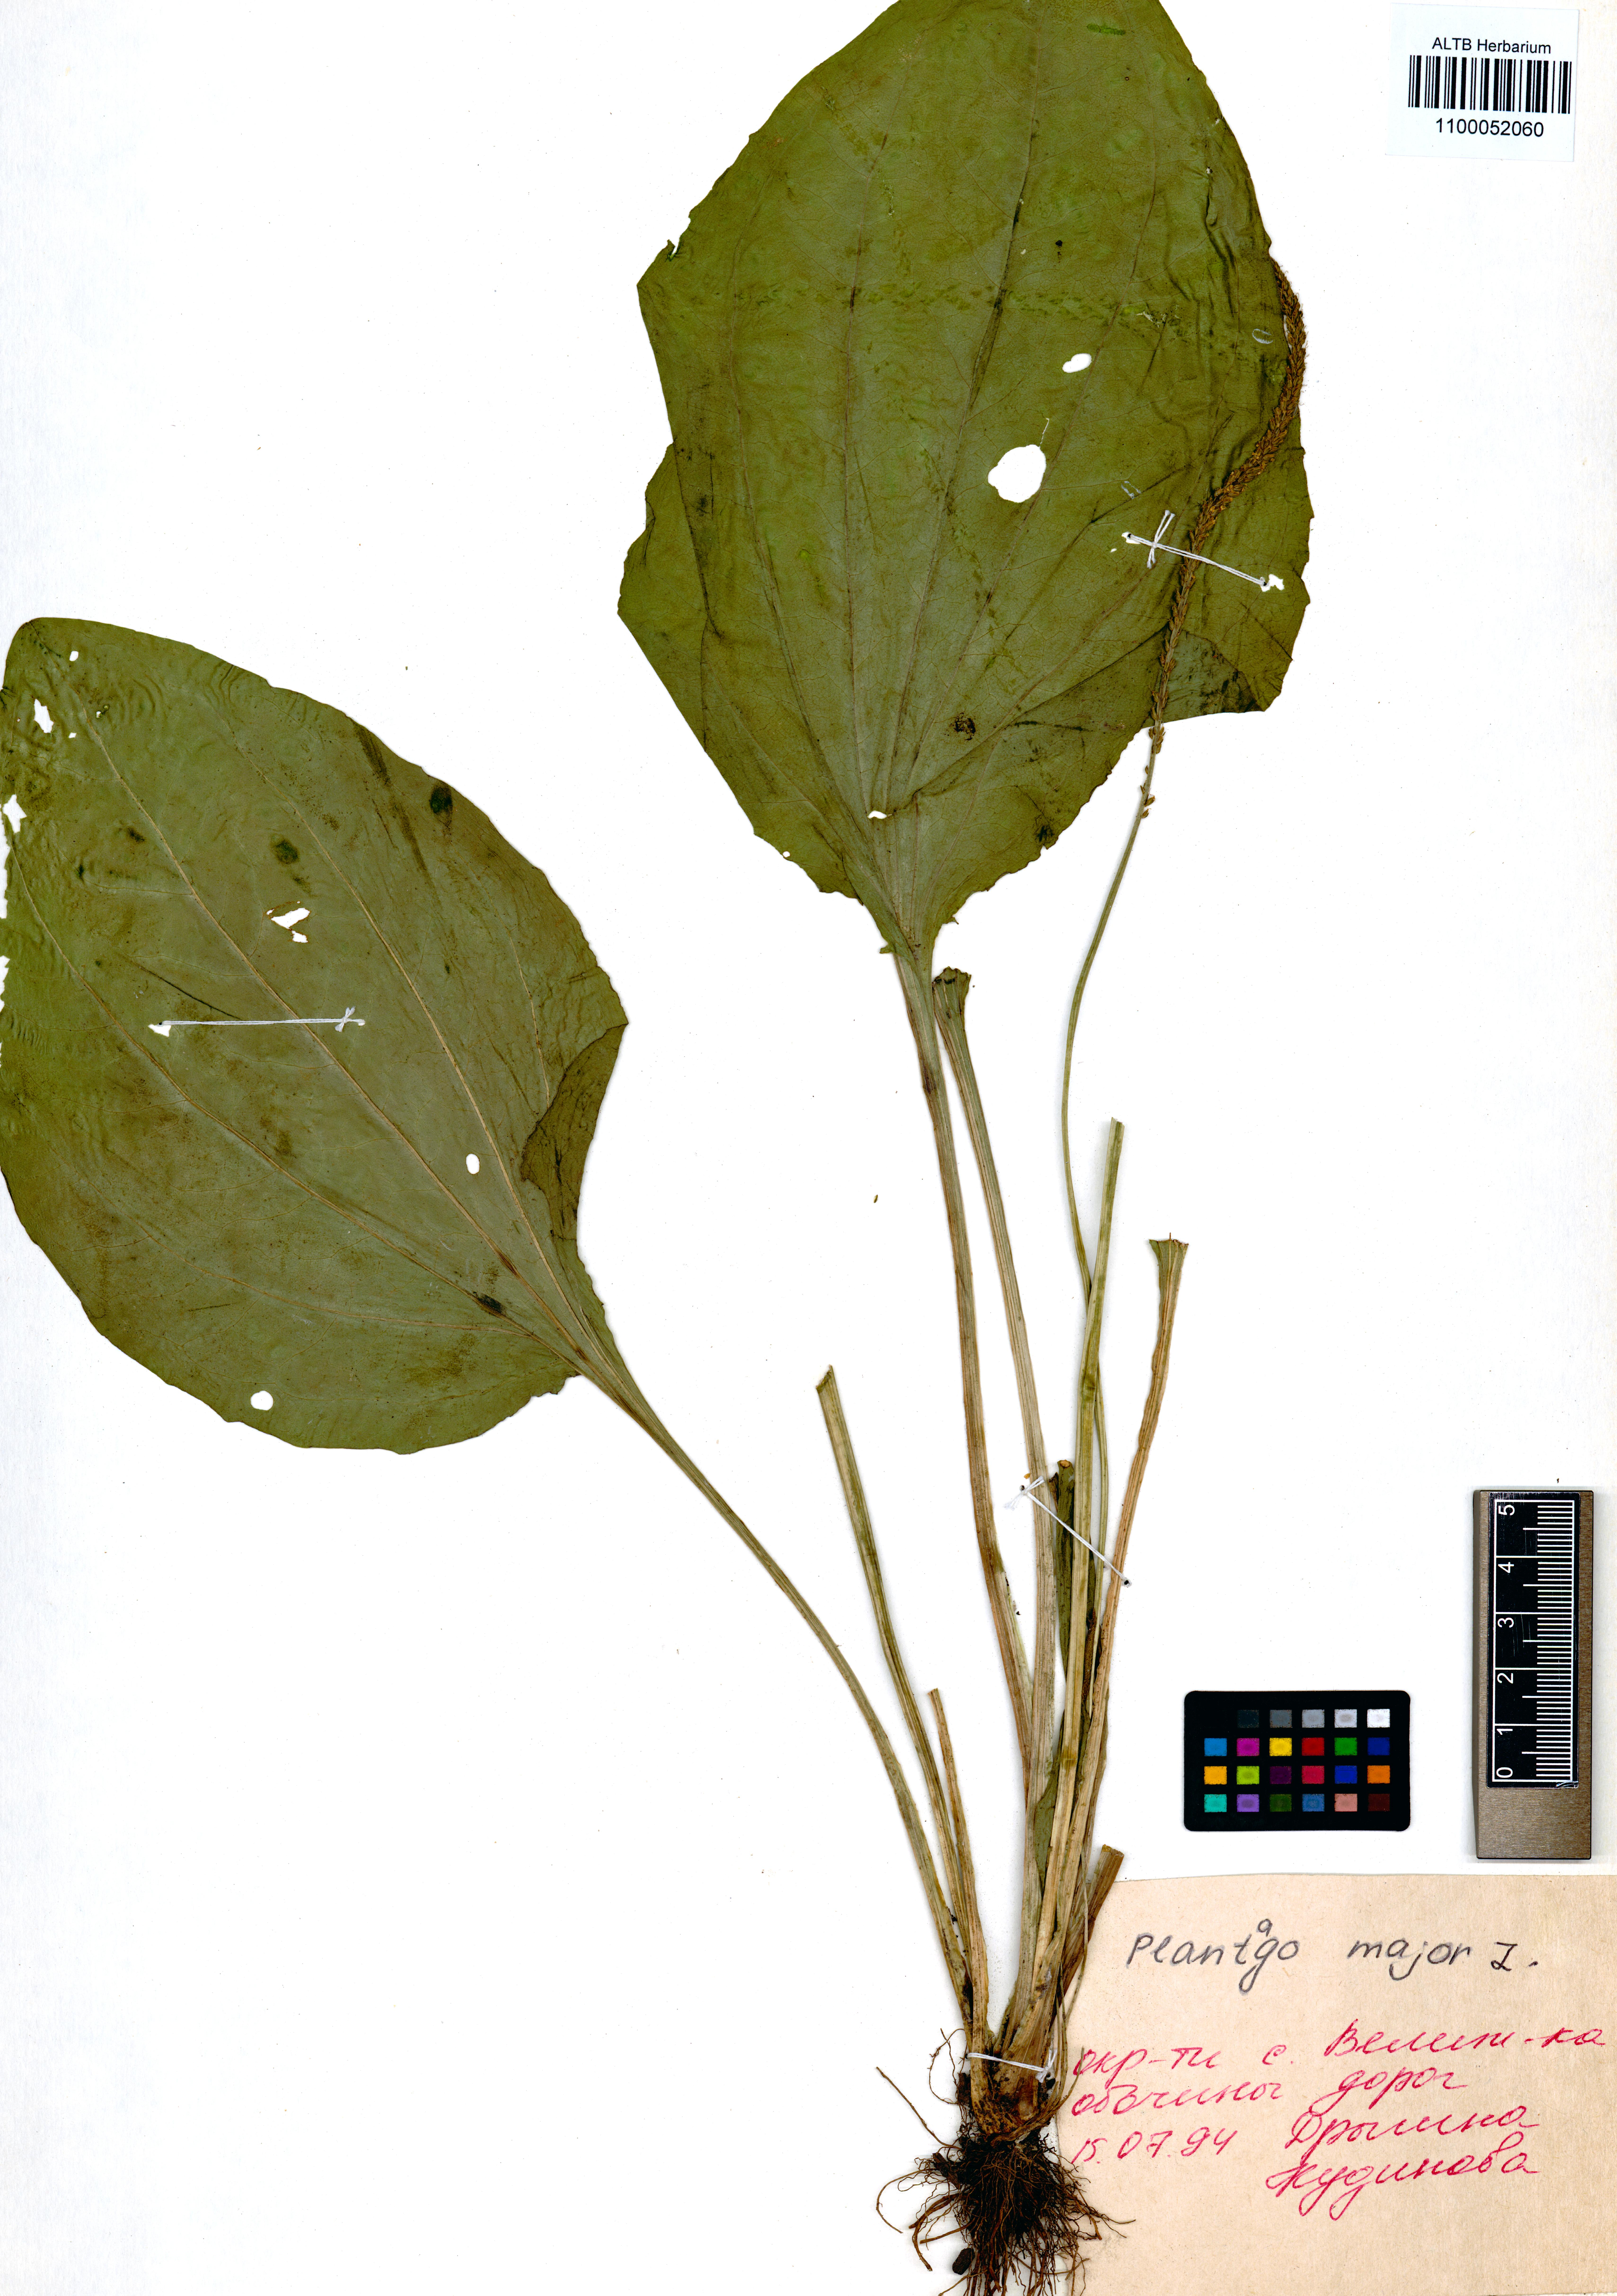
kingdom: Plantae
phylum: Tracheophyta
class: Magnoliopsida
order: Lamiales
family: Plantaginaceae
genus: Plantago
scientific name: Plantago major
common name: Common plantain
